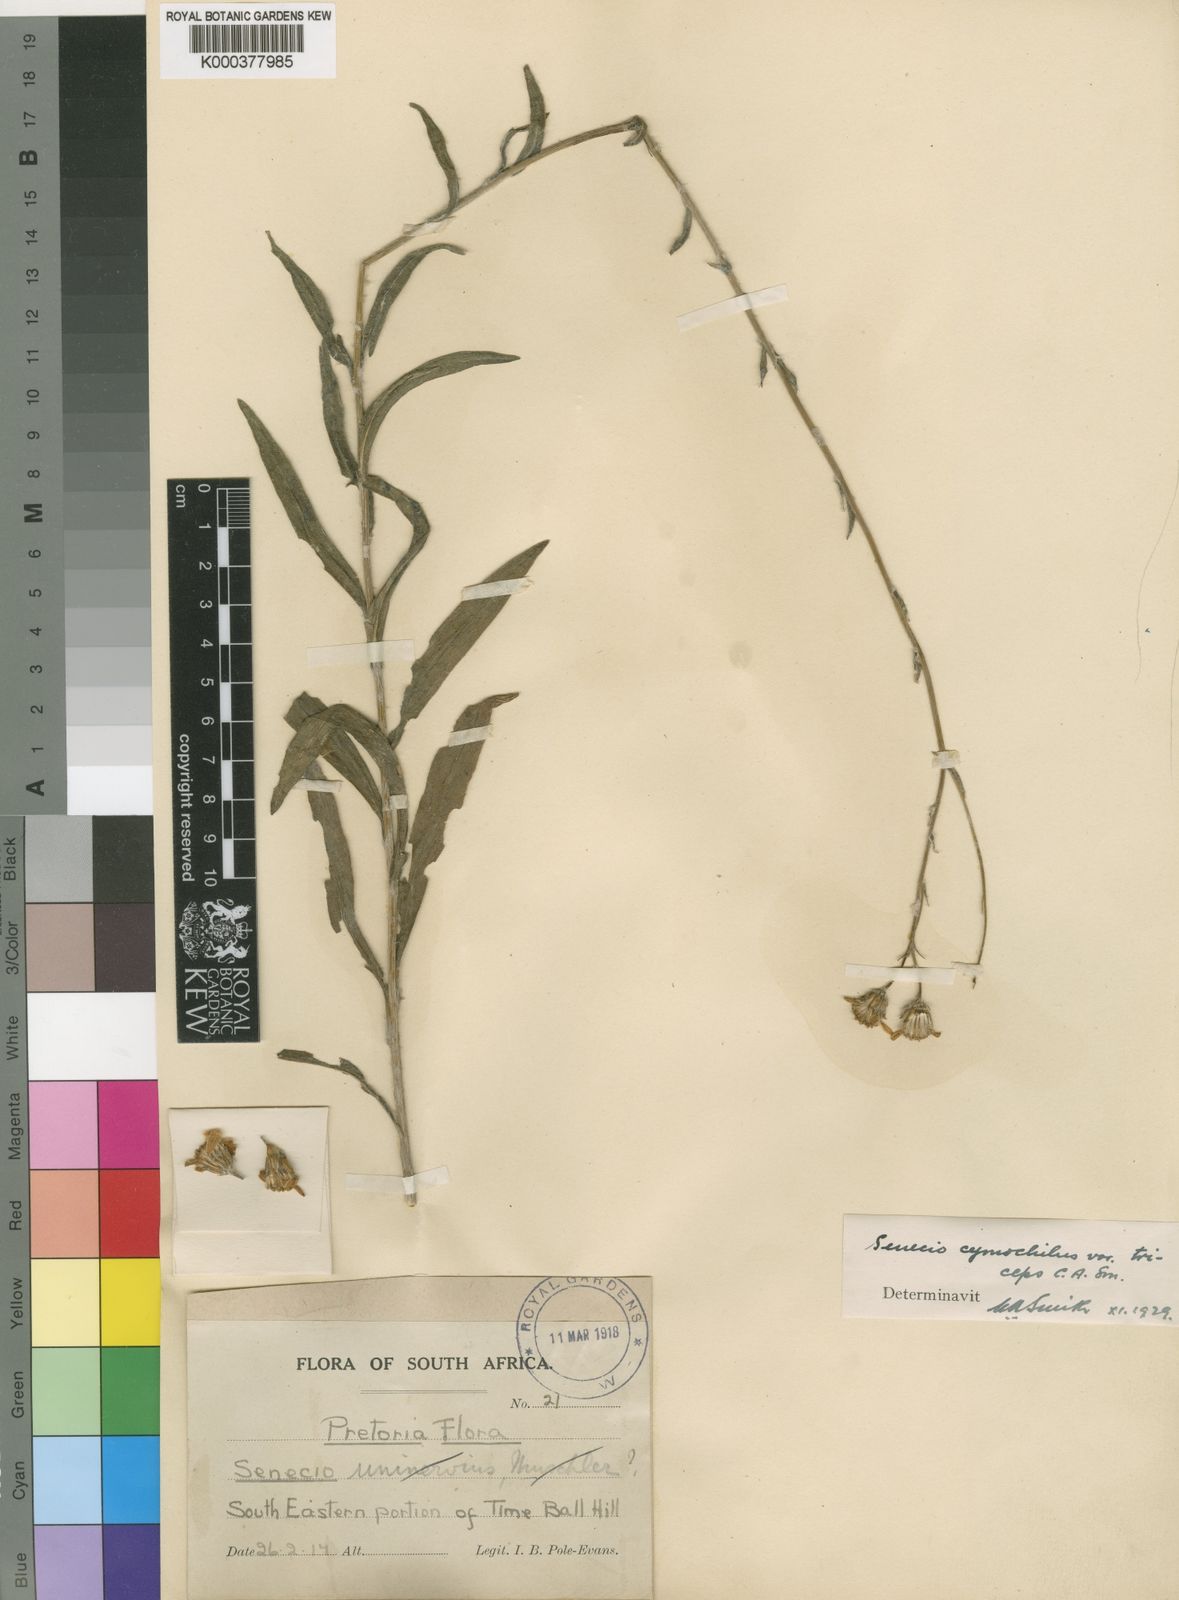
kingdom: Plantae
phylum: Tracheophyta
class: Magnoliopsida
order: Asterales
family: Asteraceae
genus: Senecio
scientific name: Senecio
